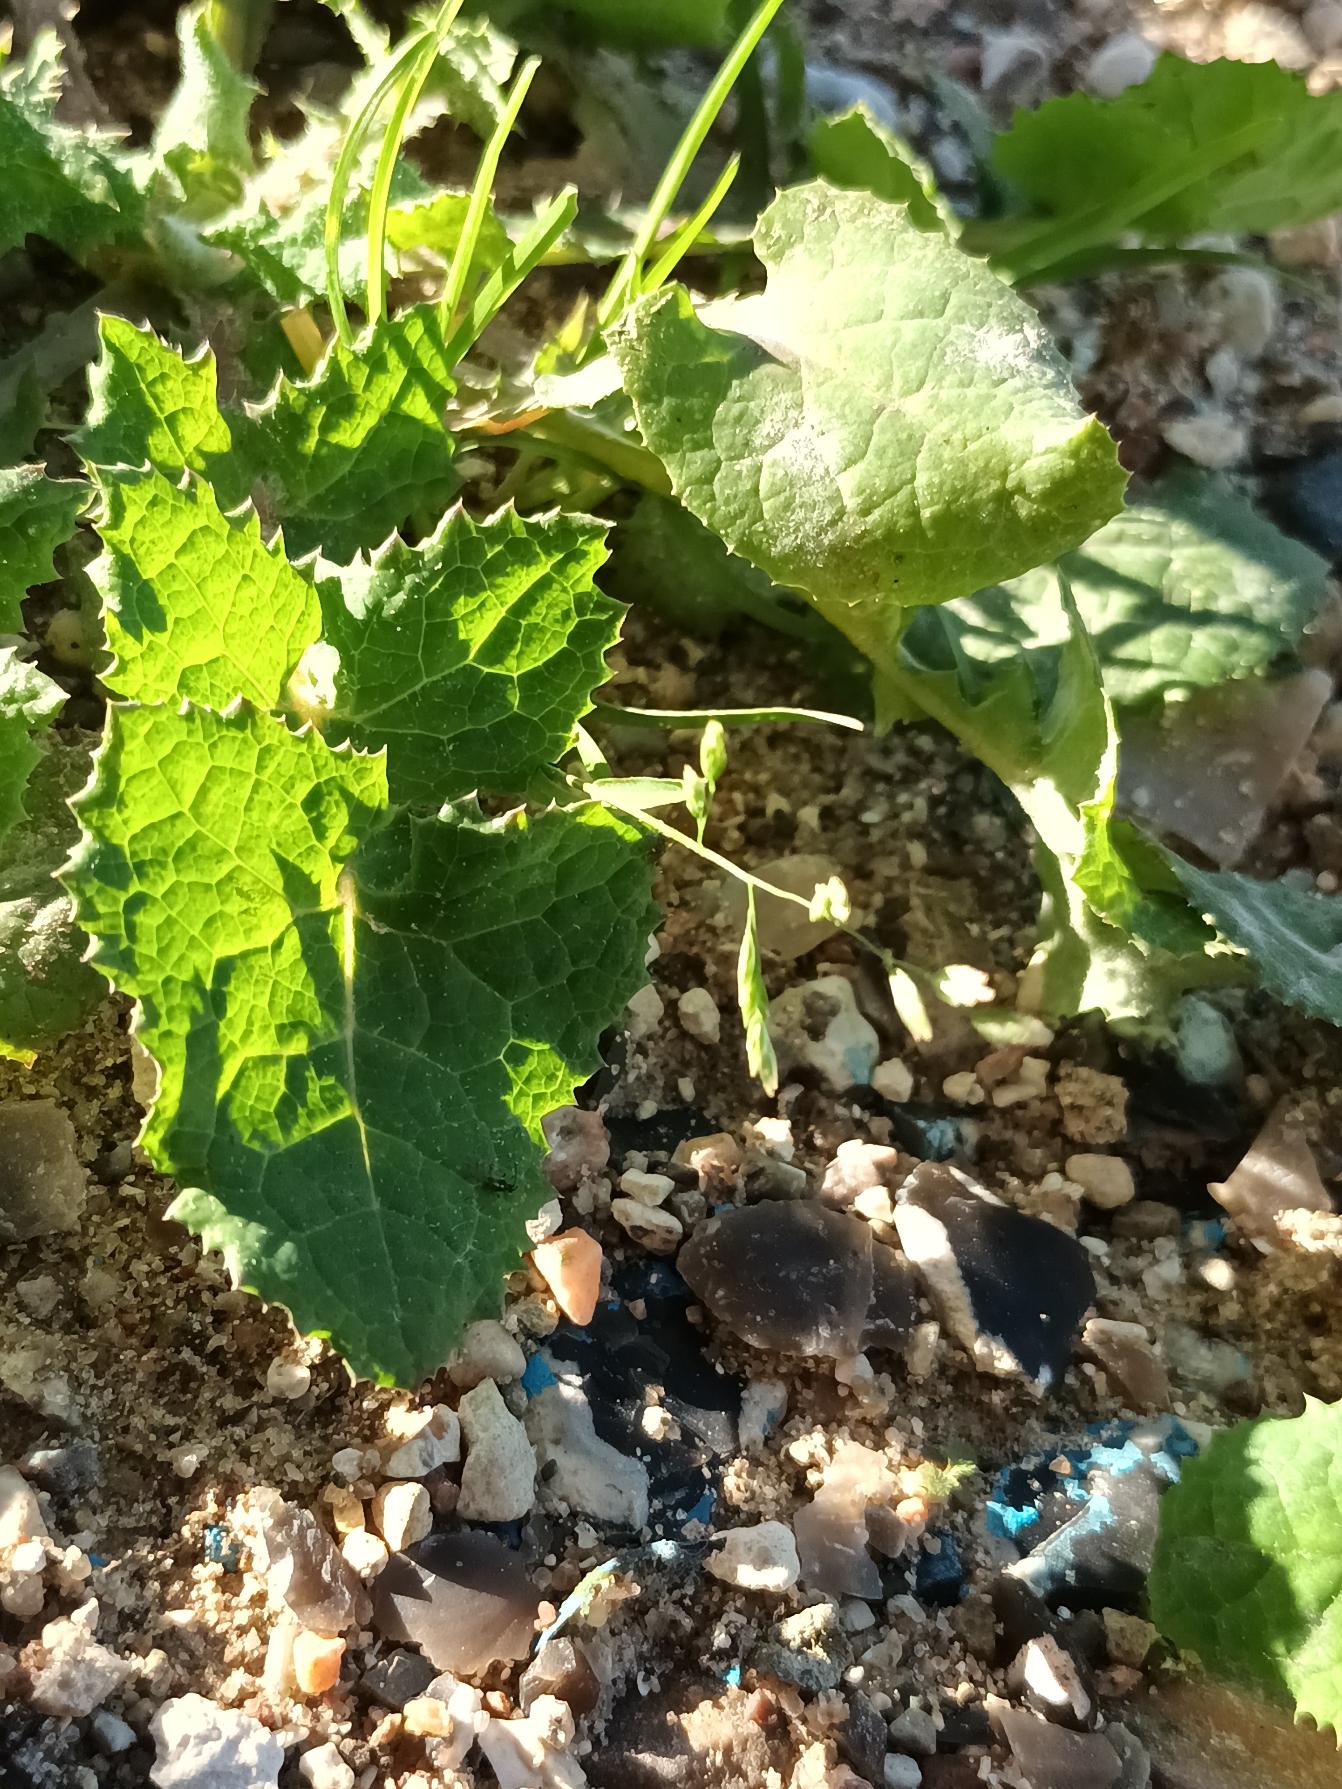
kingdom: Plantae
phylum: Tracheophyta
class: Liliopsida
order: Poales
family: Poaceae
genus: Poa
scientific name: Poa annua
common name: Enårig rapgræs
